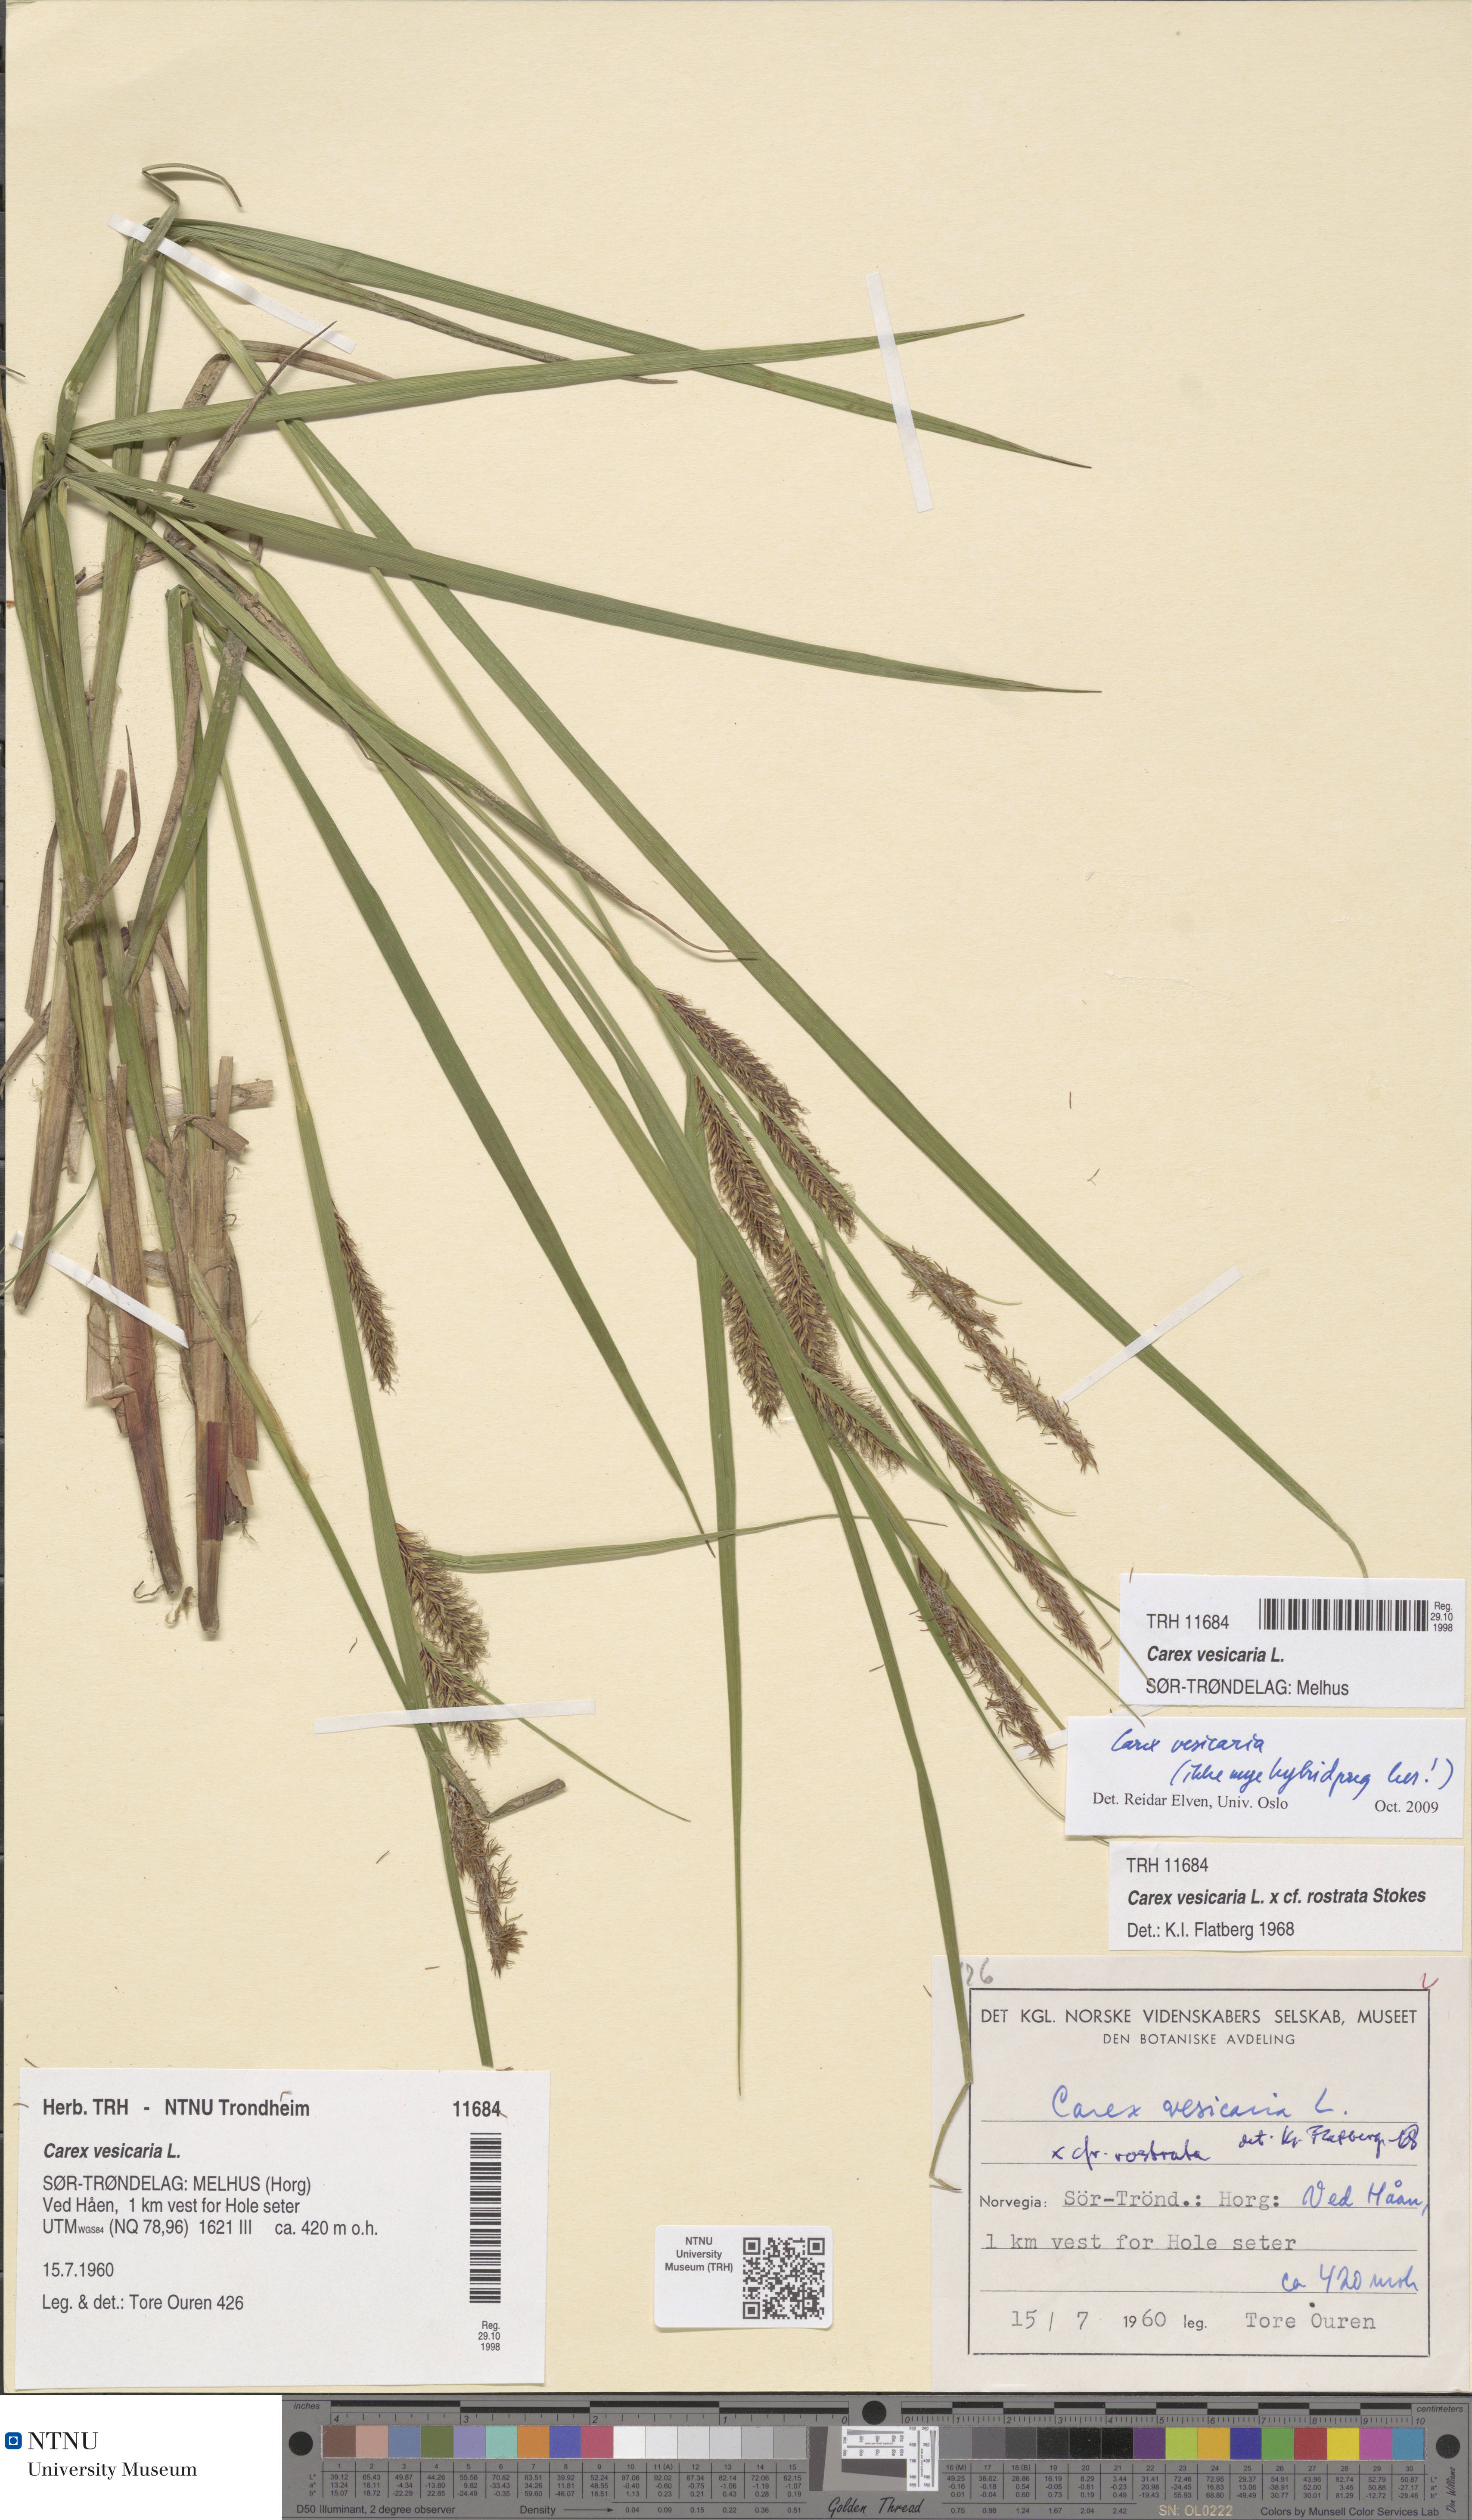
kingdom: Plantae
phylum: Tracheophyta
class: Liliopsida
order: Poales
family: Cyperaceae
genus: Carex
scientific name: Carex vesicaria
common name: Bladder-sedge
